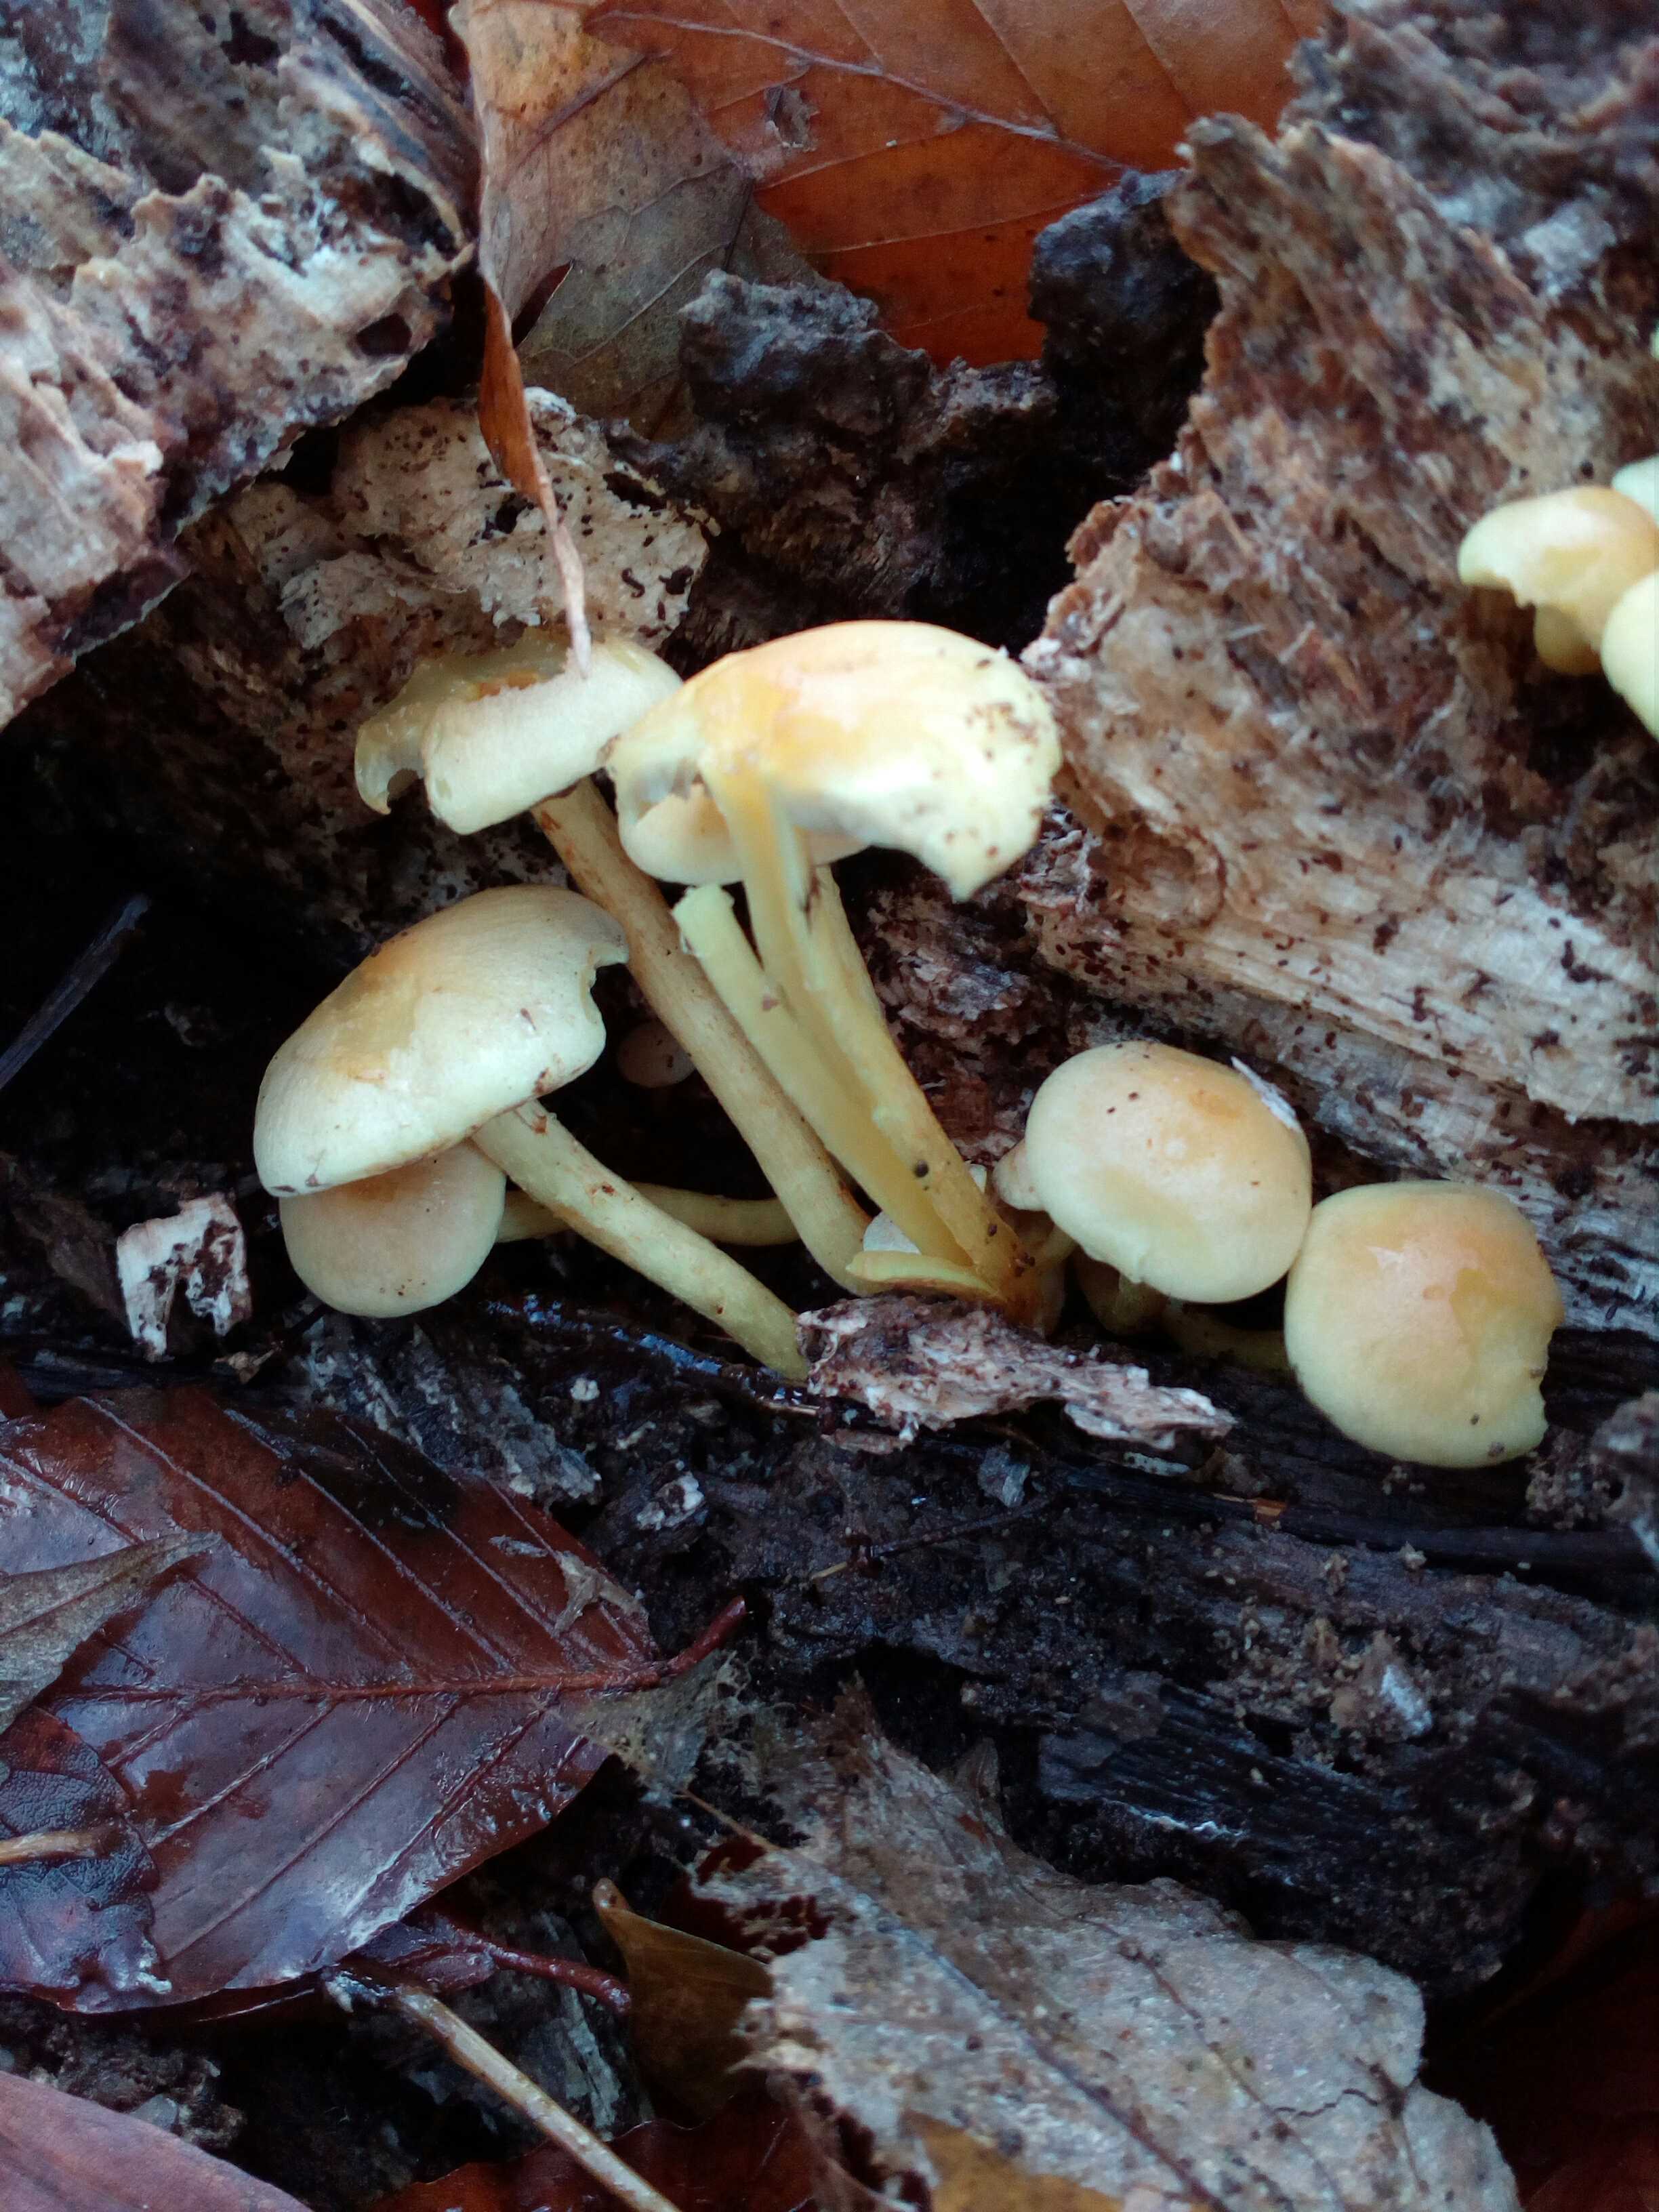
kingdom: Fungi
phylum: Basidiomycota
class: Agaricomycetes
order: Agaricales
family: Strophariaceae
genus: Hypholoma
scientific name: Hypholoma fasciculare
